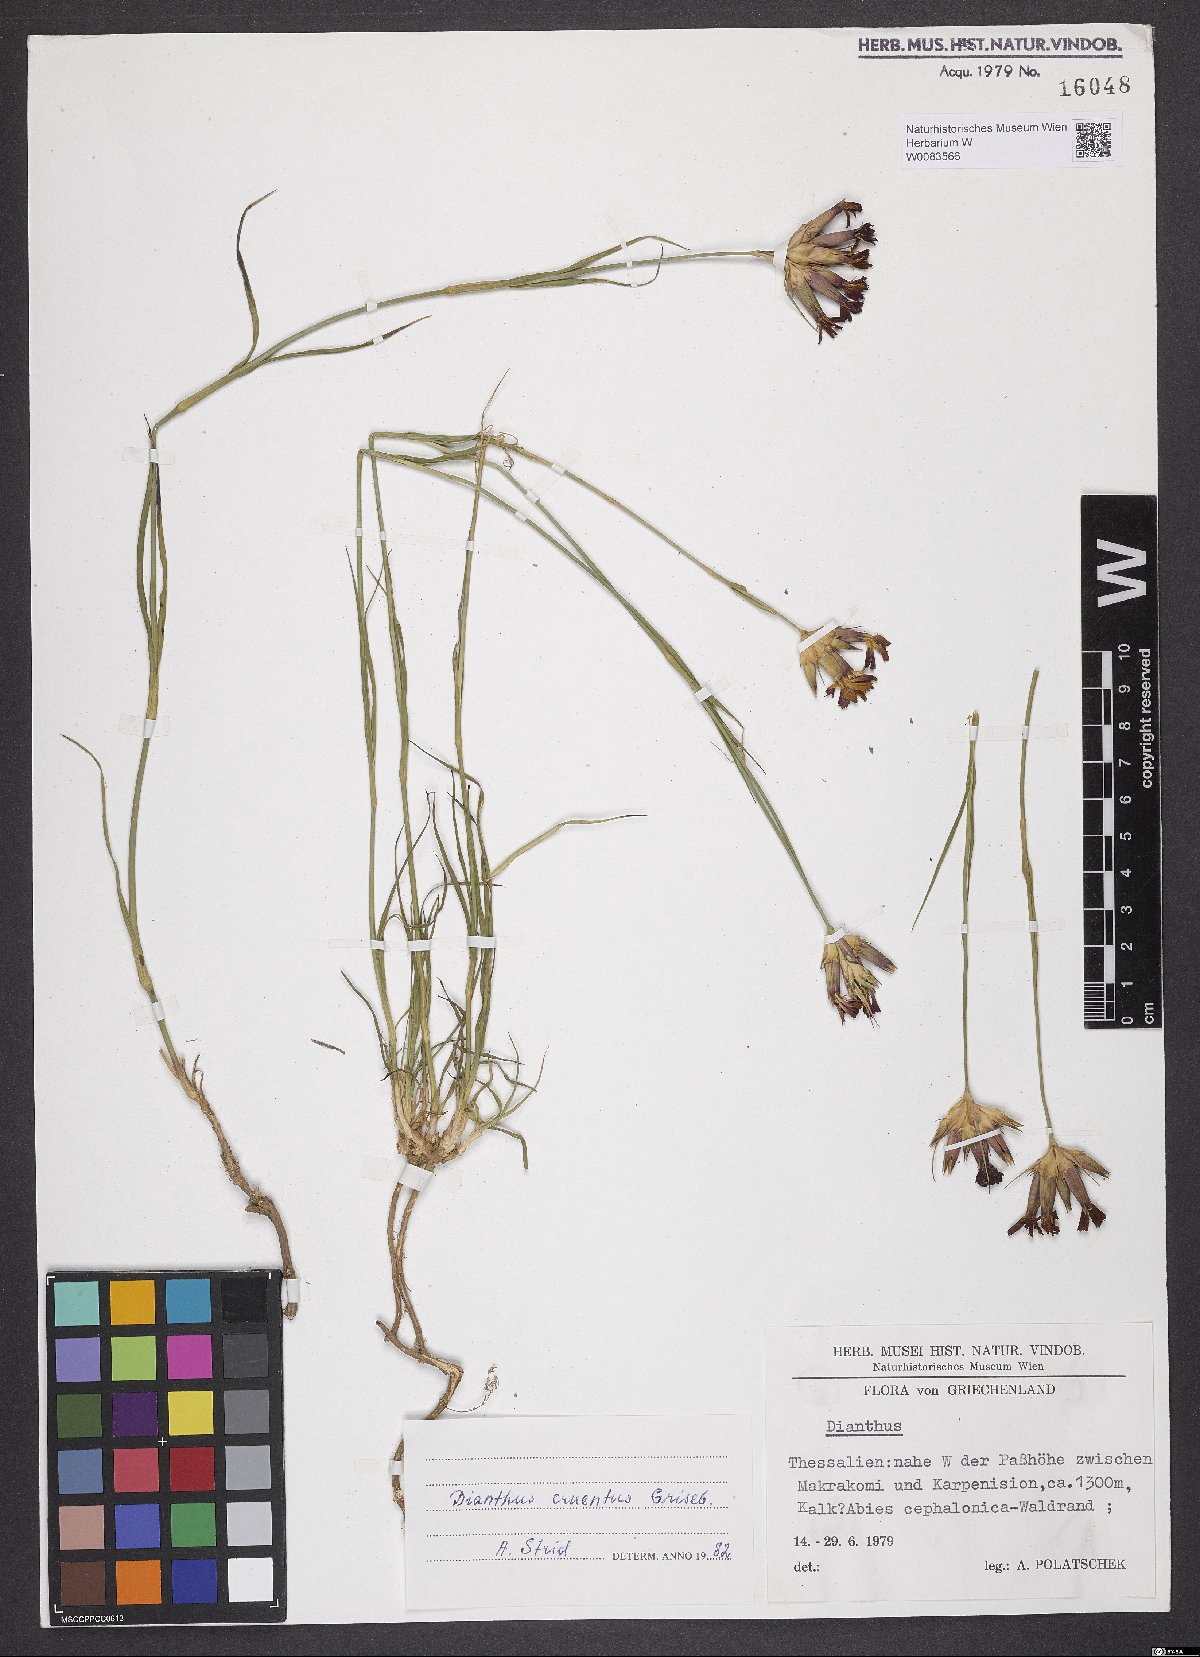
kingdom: Plantae
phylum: Tracheophyta
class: Magnoliopsida
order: Caryophyllales
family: Caryophyllaceae
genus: Dianthus
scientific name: Dianthus cruentus
